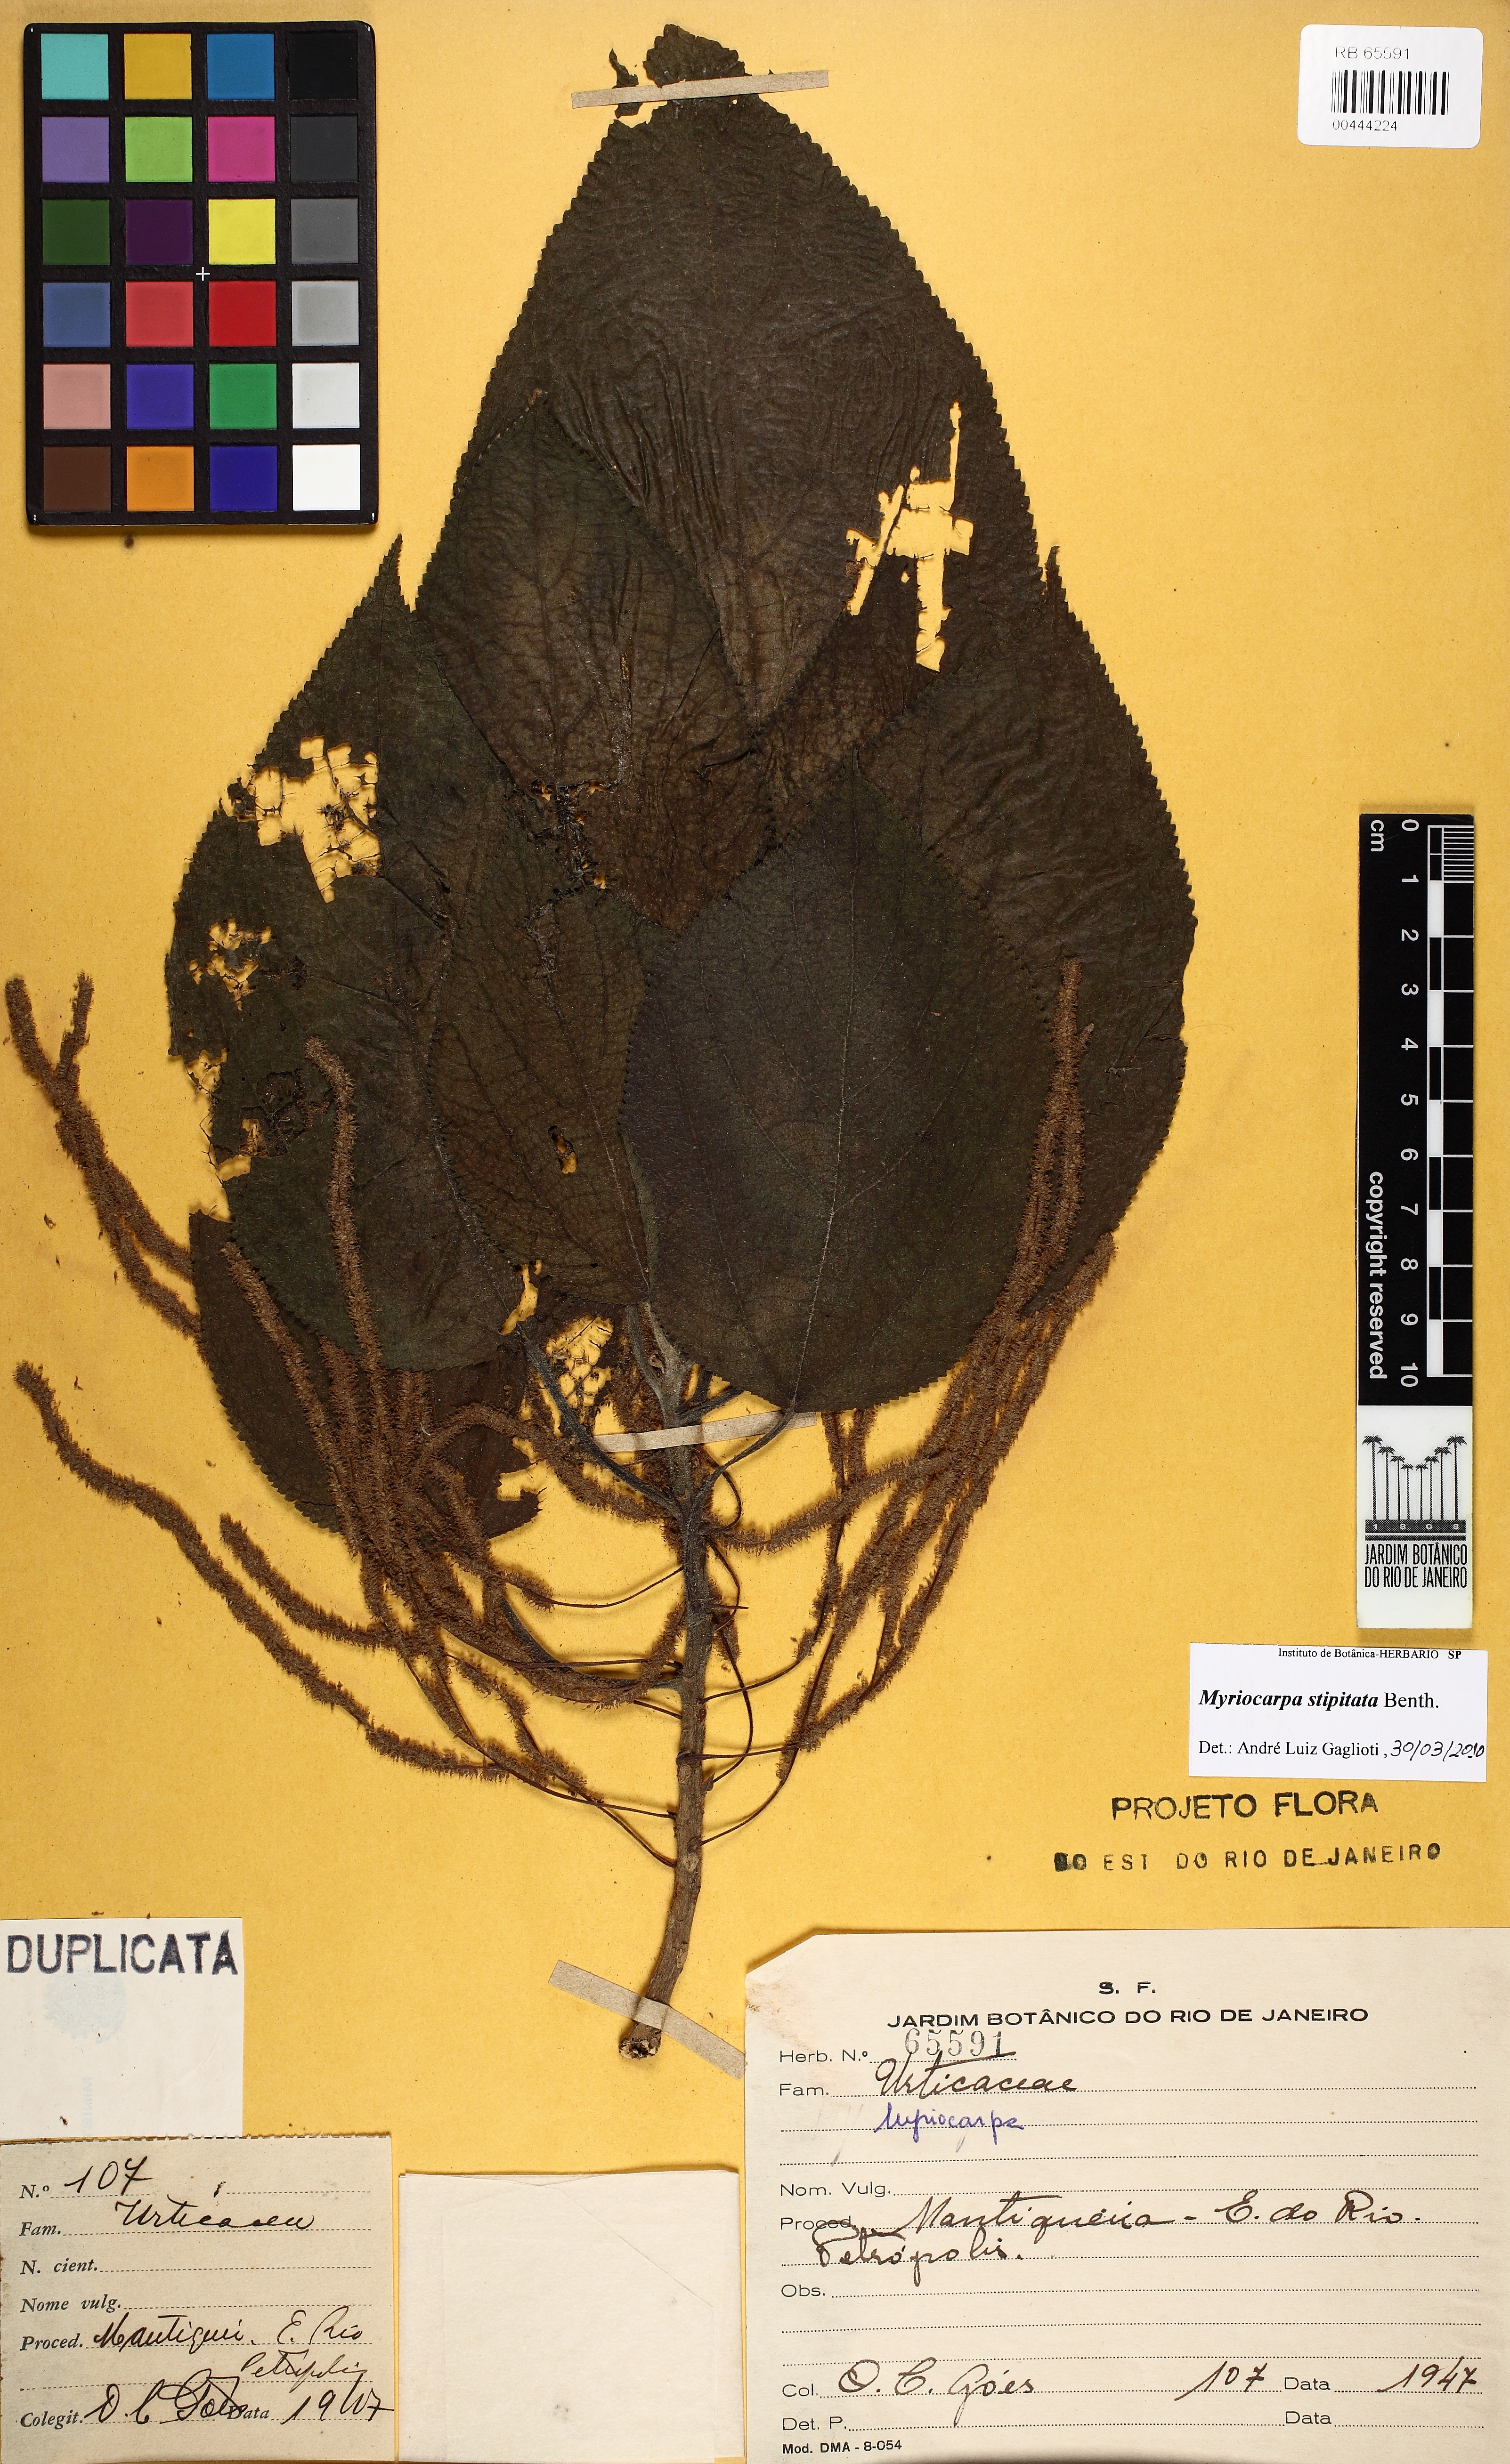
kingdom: Plantae
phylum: Tracheophyta
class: Magnoliopsida
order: Rosales
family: Urticaceae
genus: Myriocarpa
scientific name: Myriocarpa stipitata
